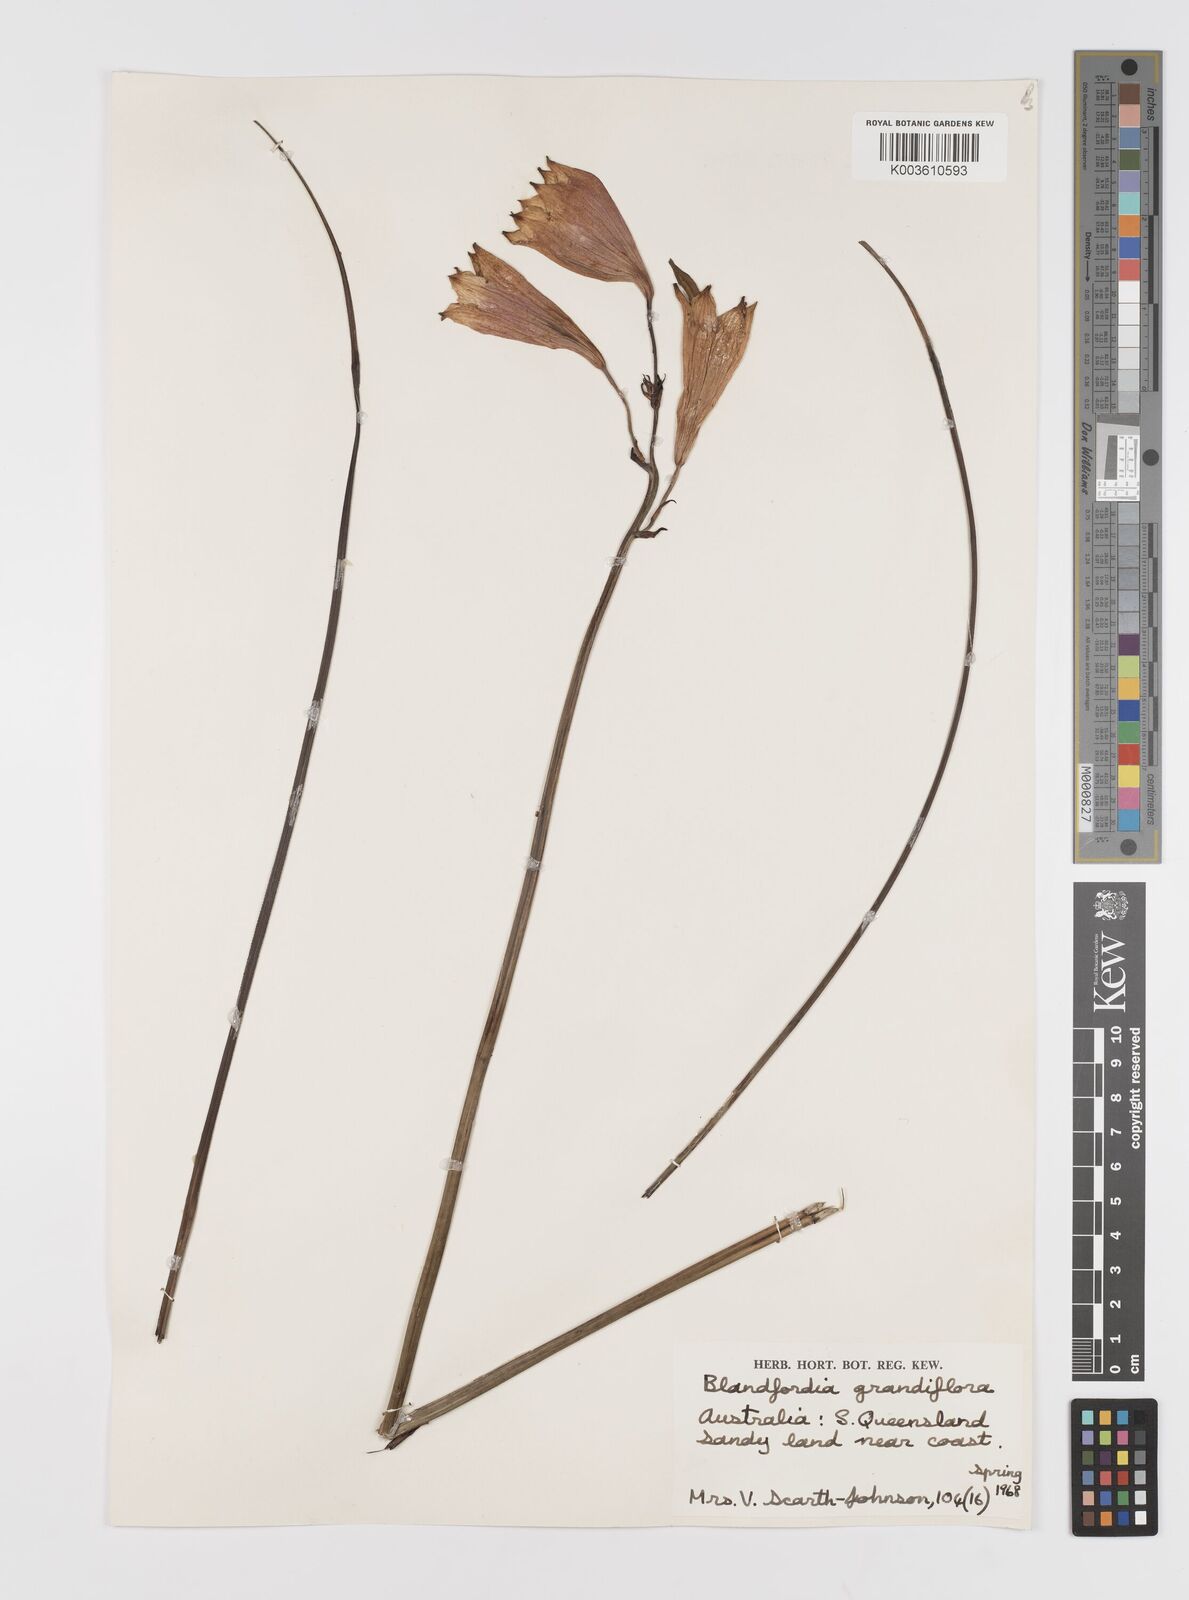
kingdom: Plantae
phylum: Tracheophyta
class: Liliopsida
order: Asparagales
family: Blandfordiaceae
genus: Blandfordia
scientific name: Blandfordia cunninghamii
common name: Christmas-bell
